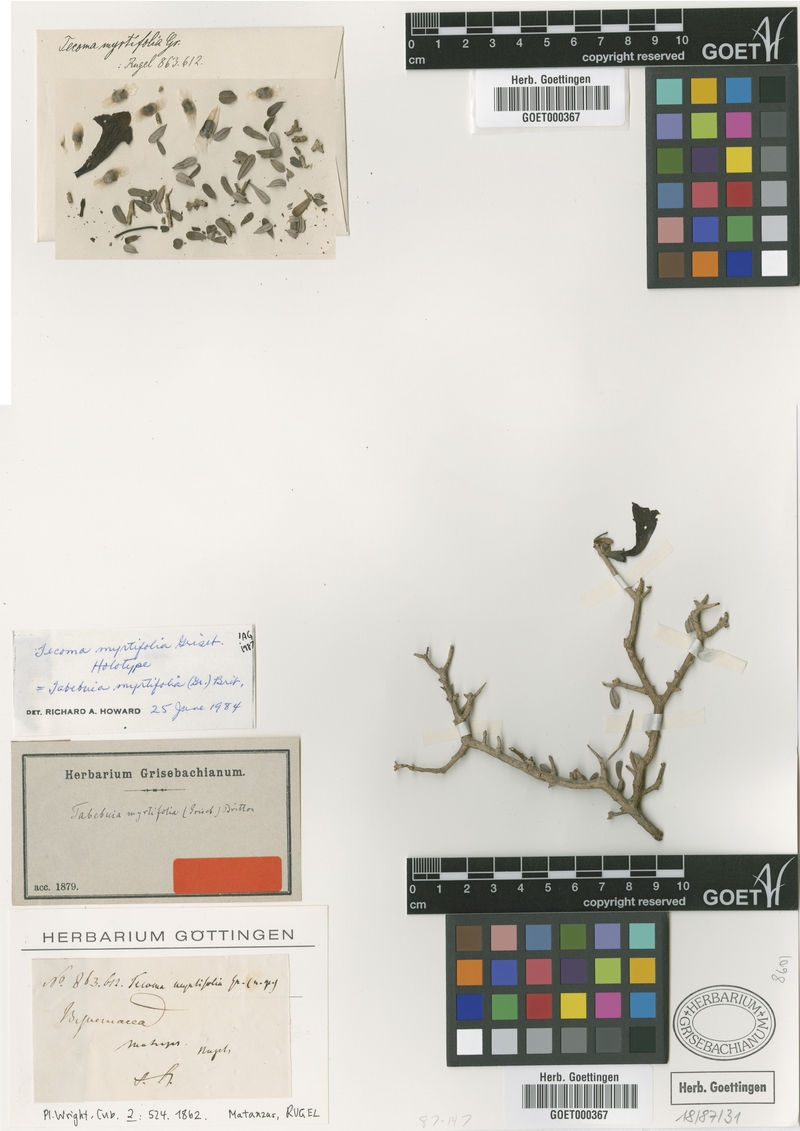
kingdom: Plantae
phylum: Tracheophyta
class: Magnoliopsida
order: Lamiales
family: Bignoniaceae
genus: Tabebuia
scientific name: Tabebuia myrtifolia
